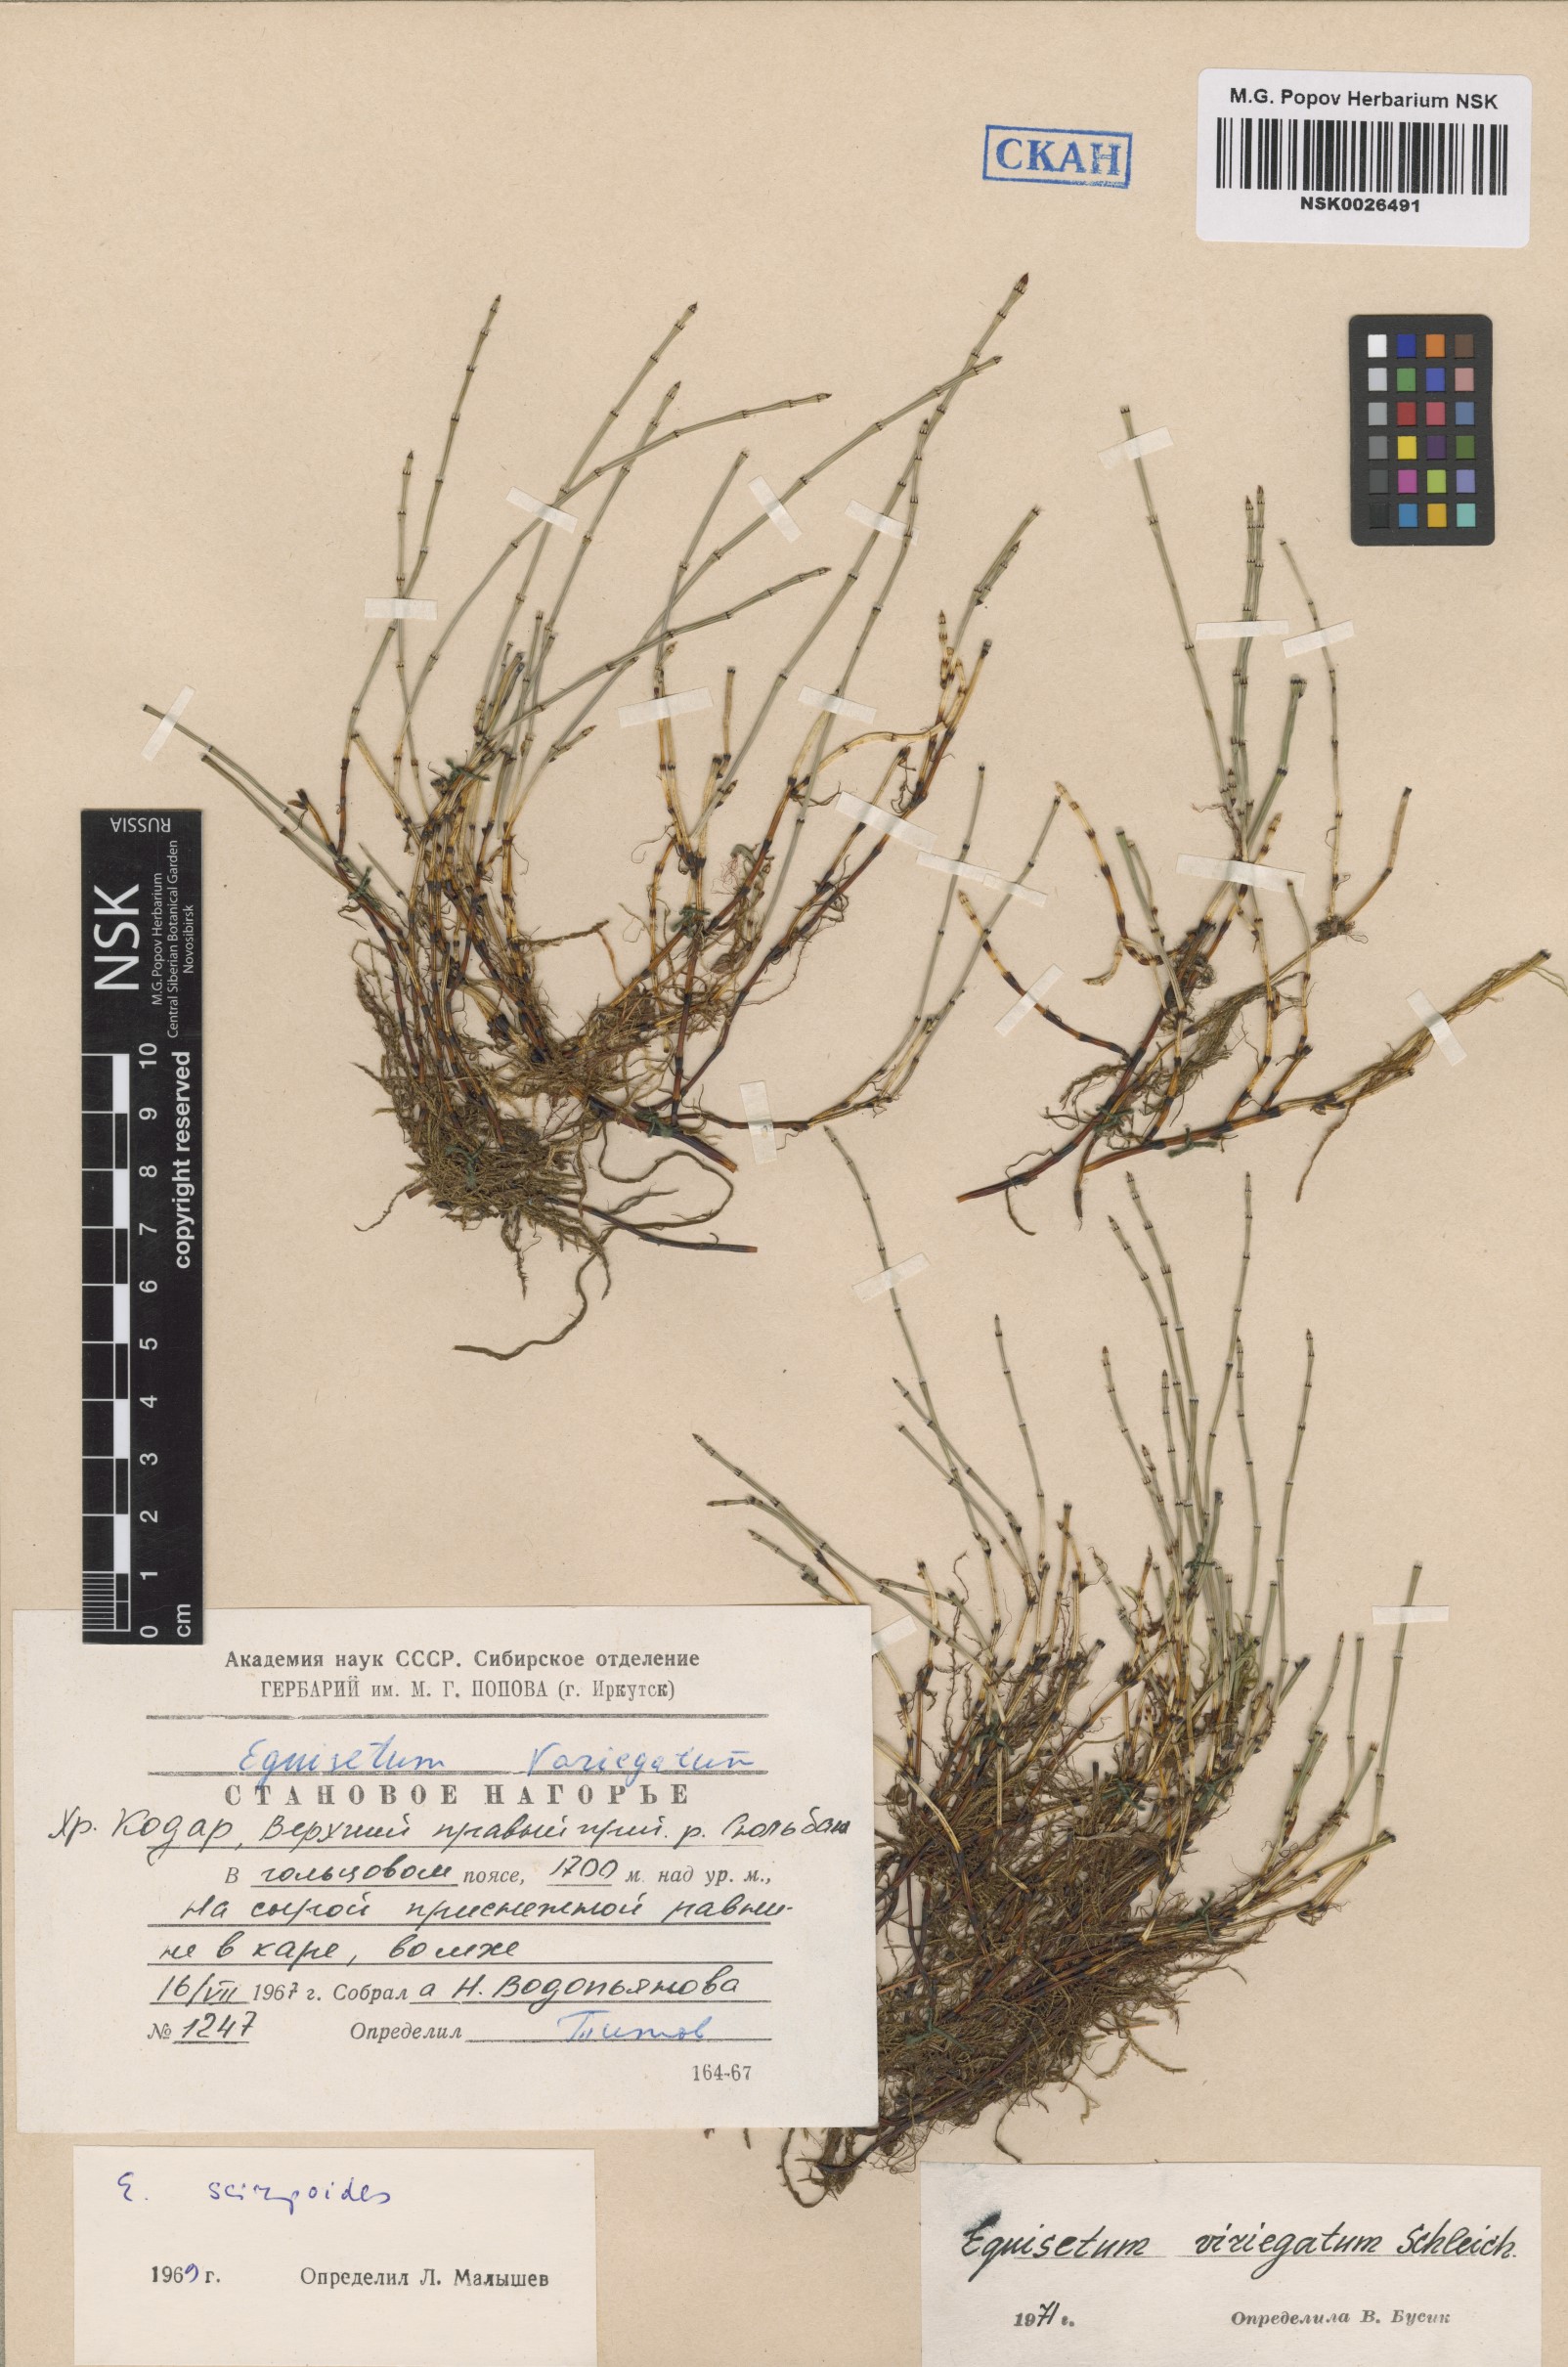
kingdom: Plantae
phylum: Tracheophyta
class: Polypodiopsida
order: Equisetales
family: Equisetaceae
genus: Equisetum
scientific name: Equisetum variegatum
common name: Variegated horsetail
